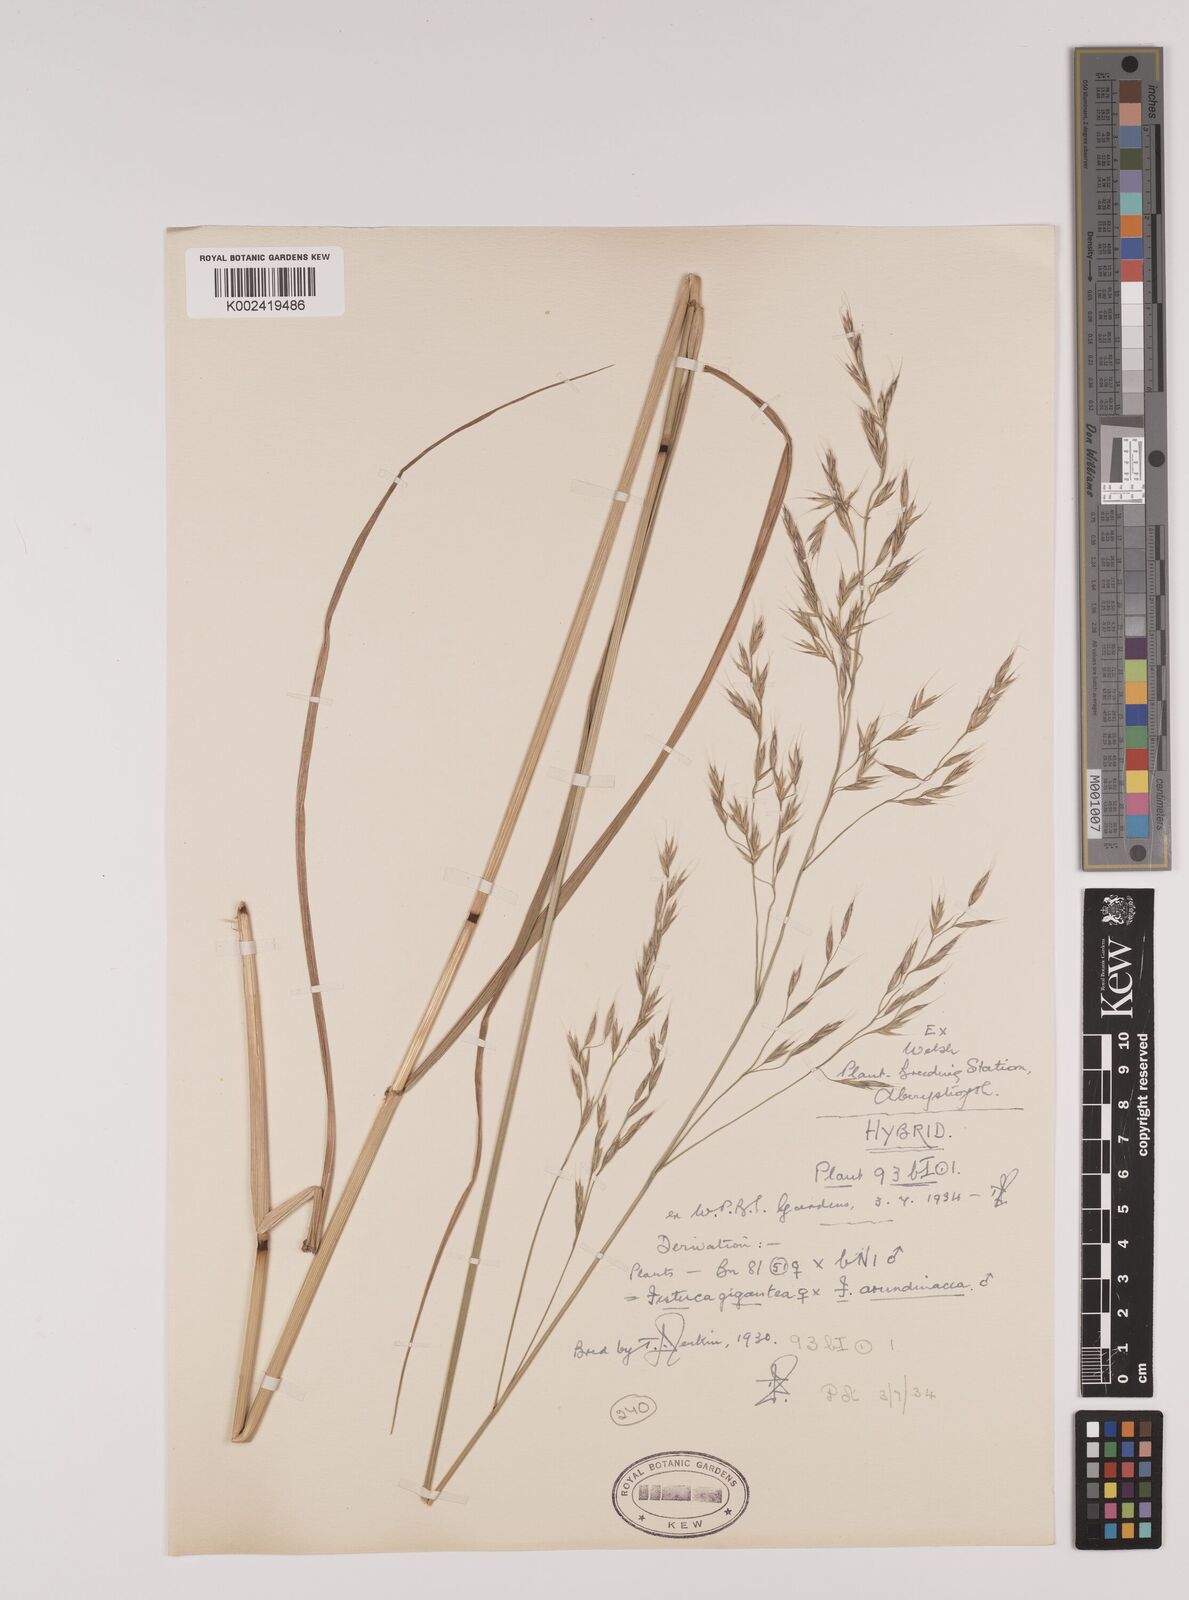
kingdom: Plantae
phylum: Tracheophyta
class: Liliopsida
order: Poales
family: Poaceae
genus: Lolium
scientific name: Lolium giganteum
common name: Giant fescue
